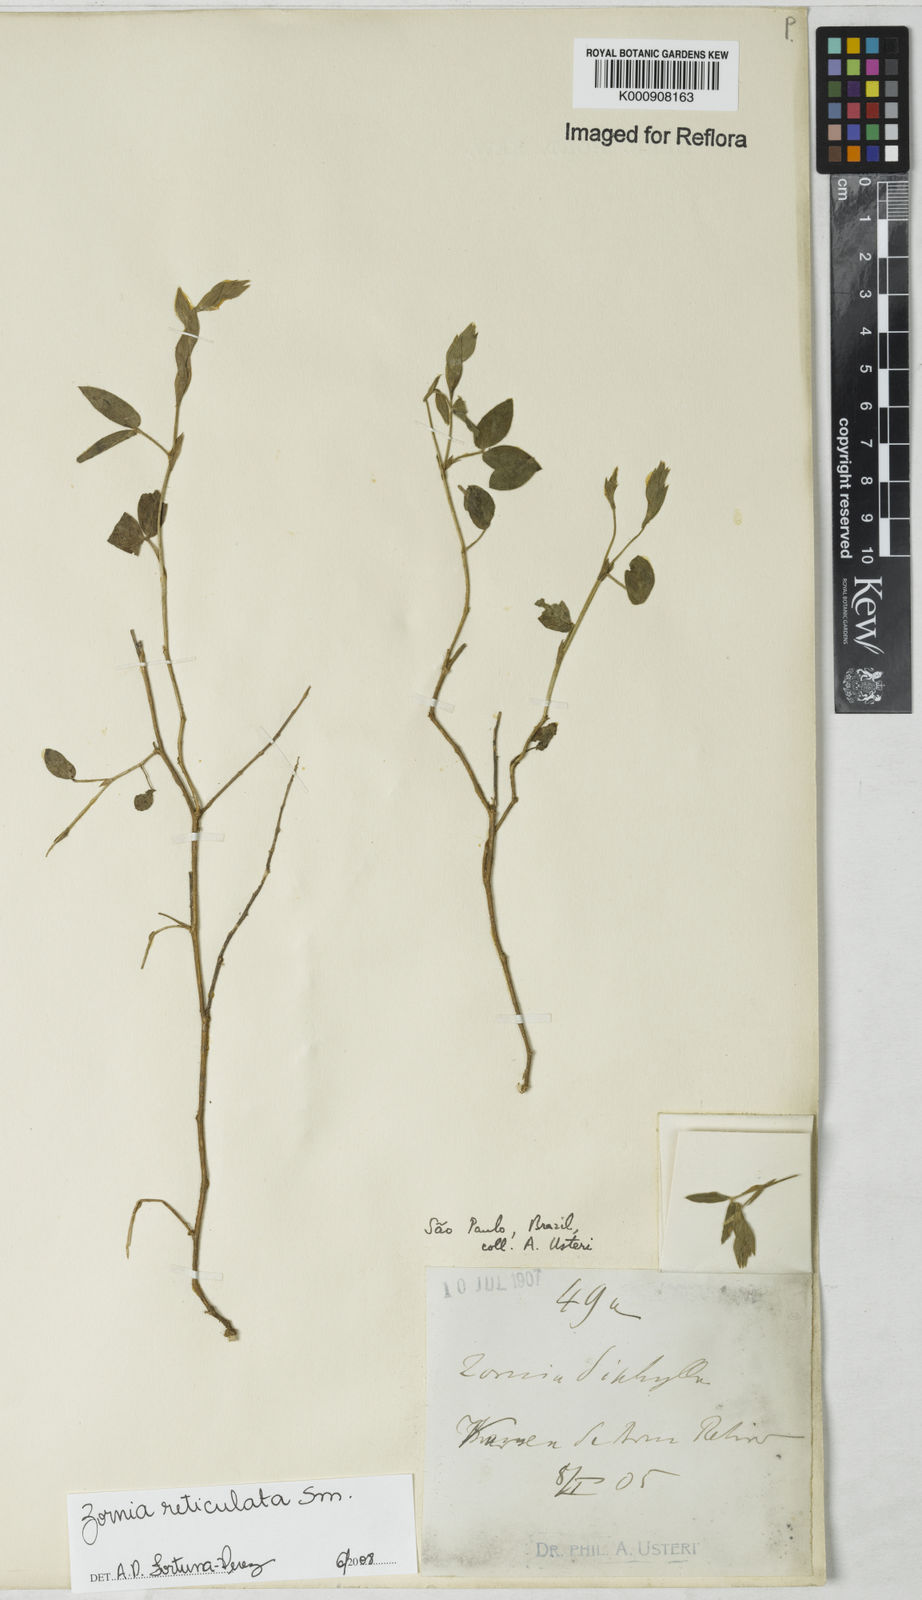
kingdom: Plantae
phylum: Tracheophyta
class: Magnoliopsida
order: Fabales
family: Fabaceae
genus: Zornia
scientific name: Zornia reticulata
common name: Reticulate viperina
